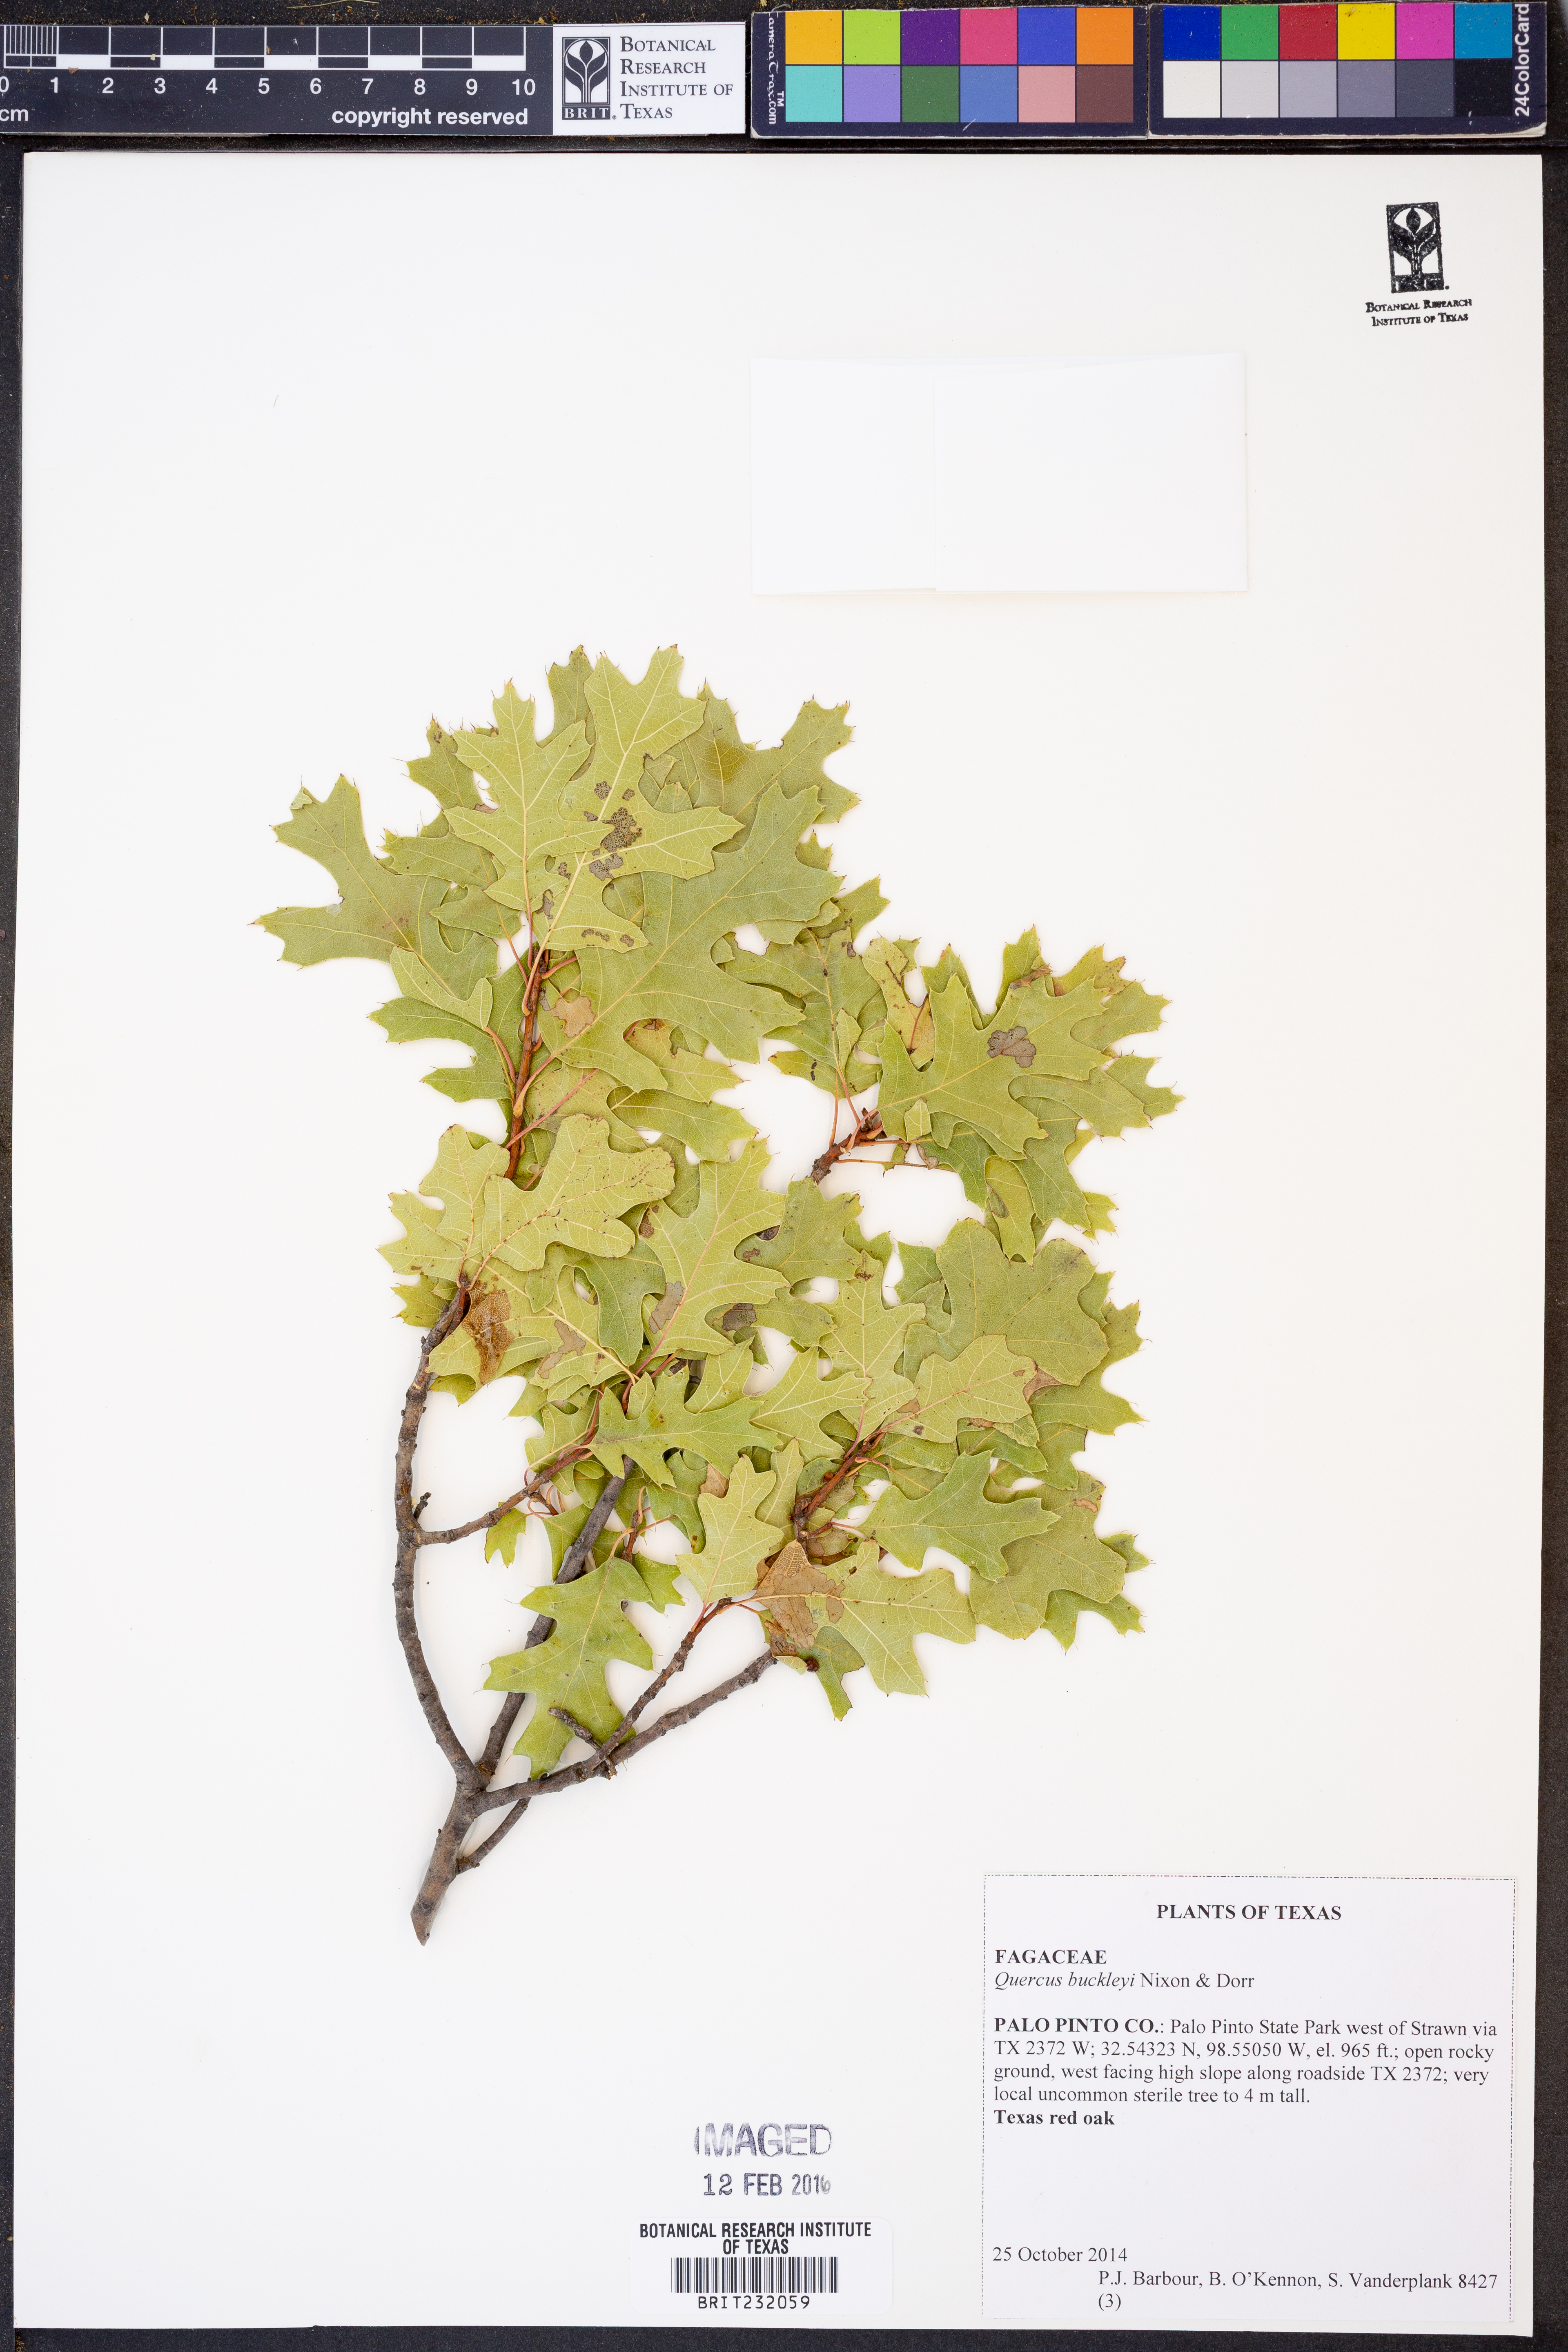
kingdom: Plantae
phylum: Tracheophyta
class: Magnoliopsida
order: Fagales
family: Fagaceae
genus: Quercus
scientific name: Quercus buckleyi
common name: Buckley oak
